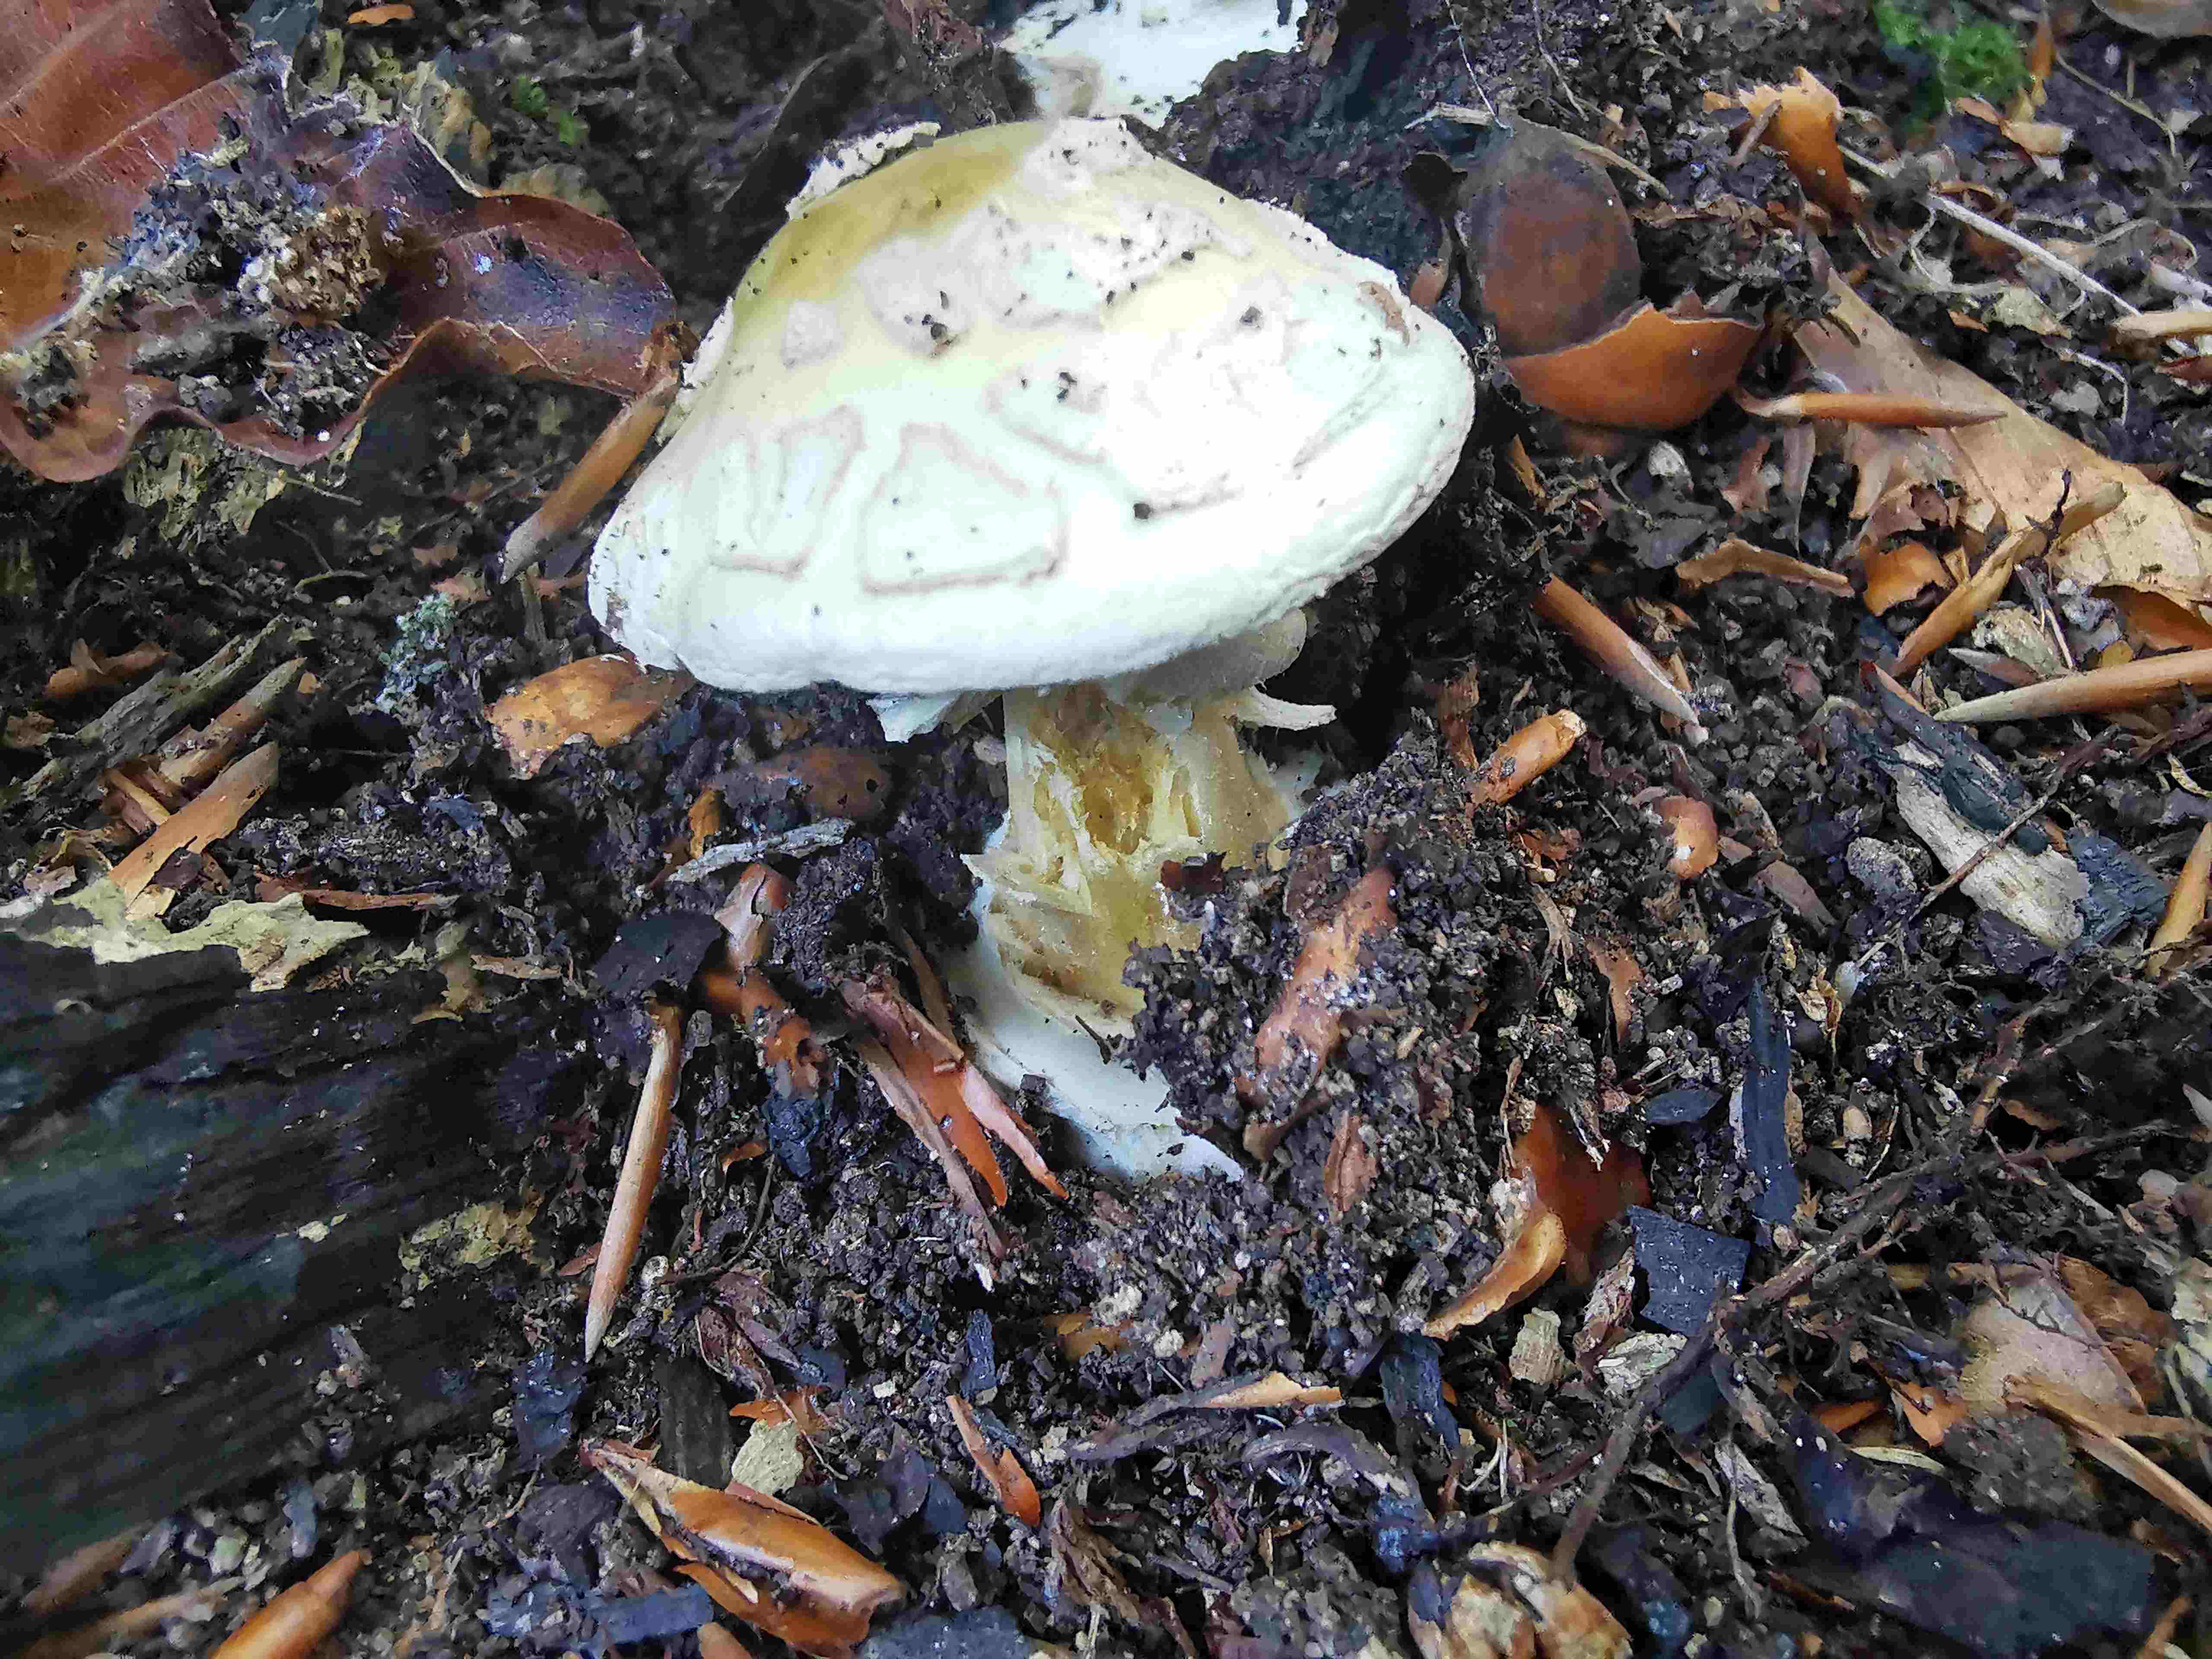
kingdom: Fungi
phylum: Basidiomycota
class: Agaricomycetes
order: Agaricales
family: Amanitaceae
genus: Amanita
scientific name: Amanita citrina
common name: kugleknoldet fluesvamp
